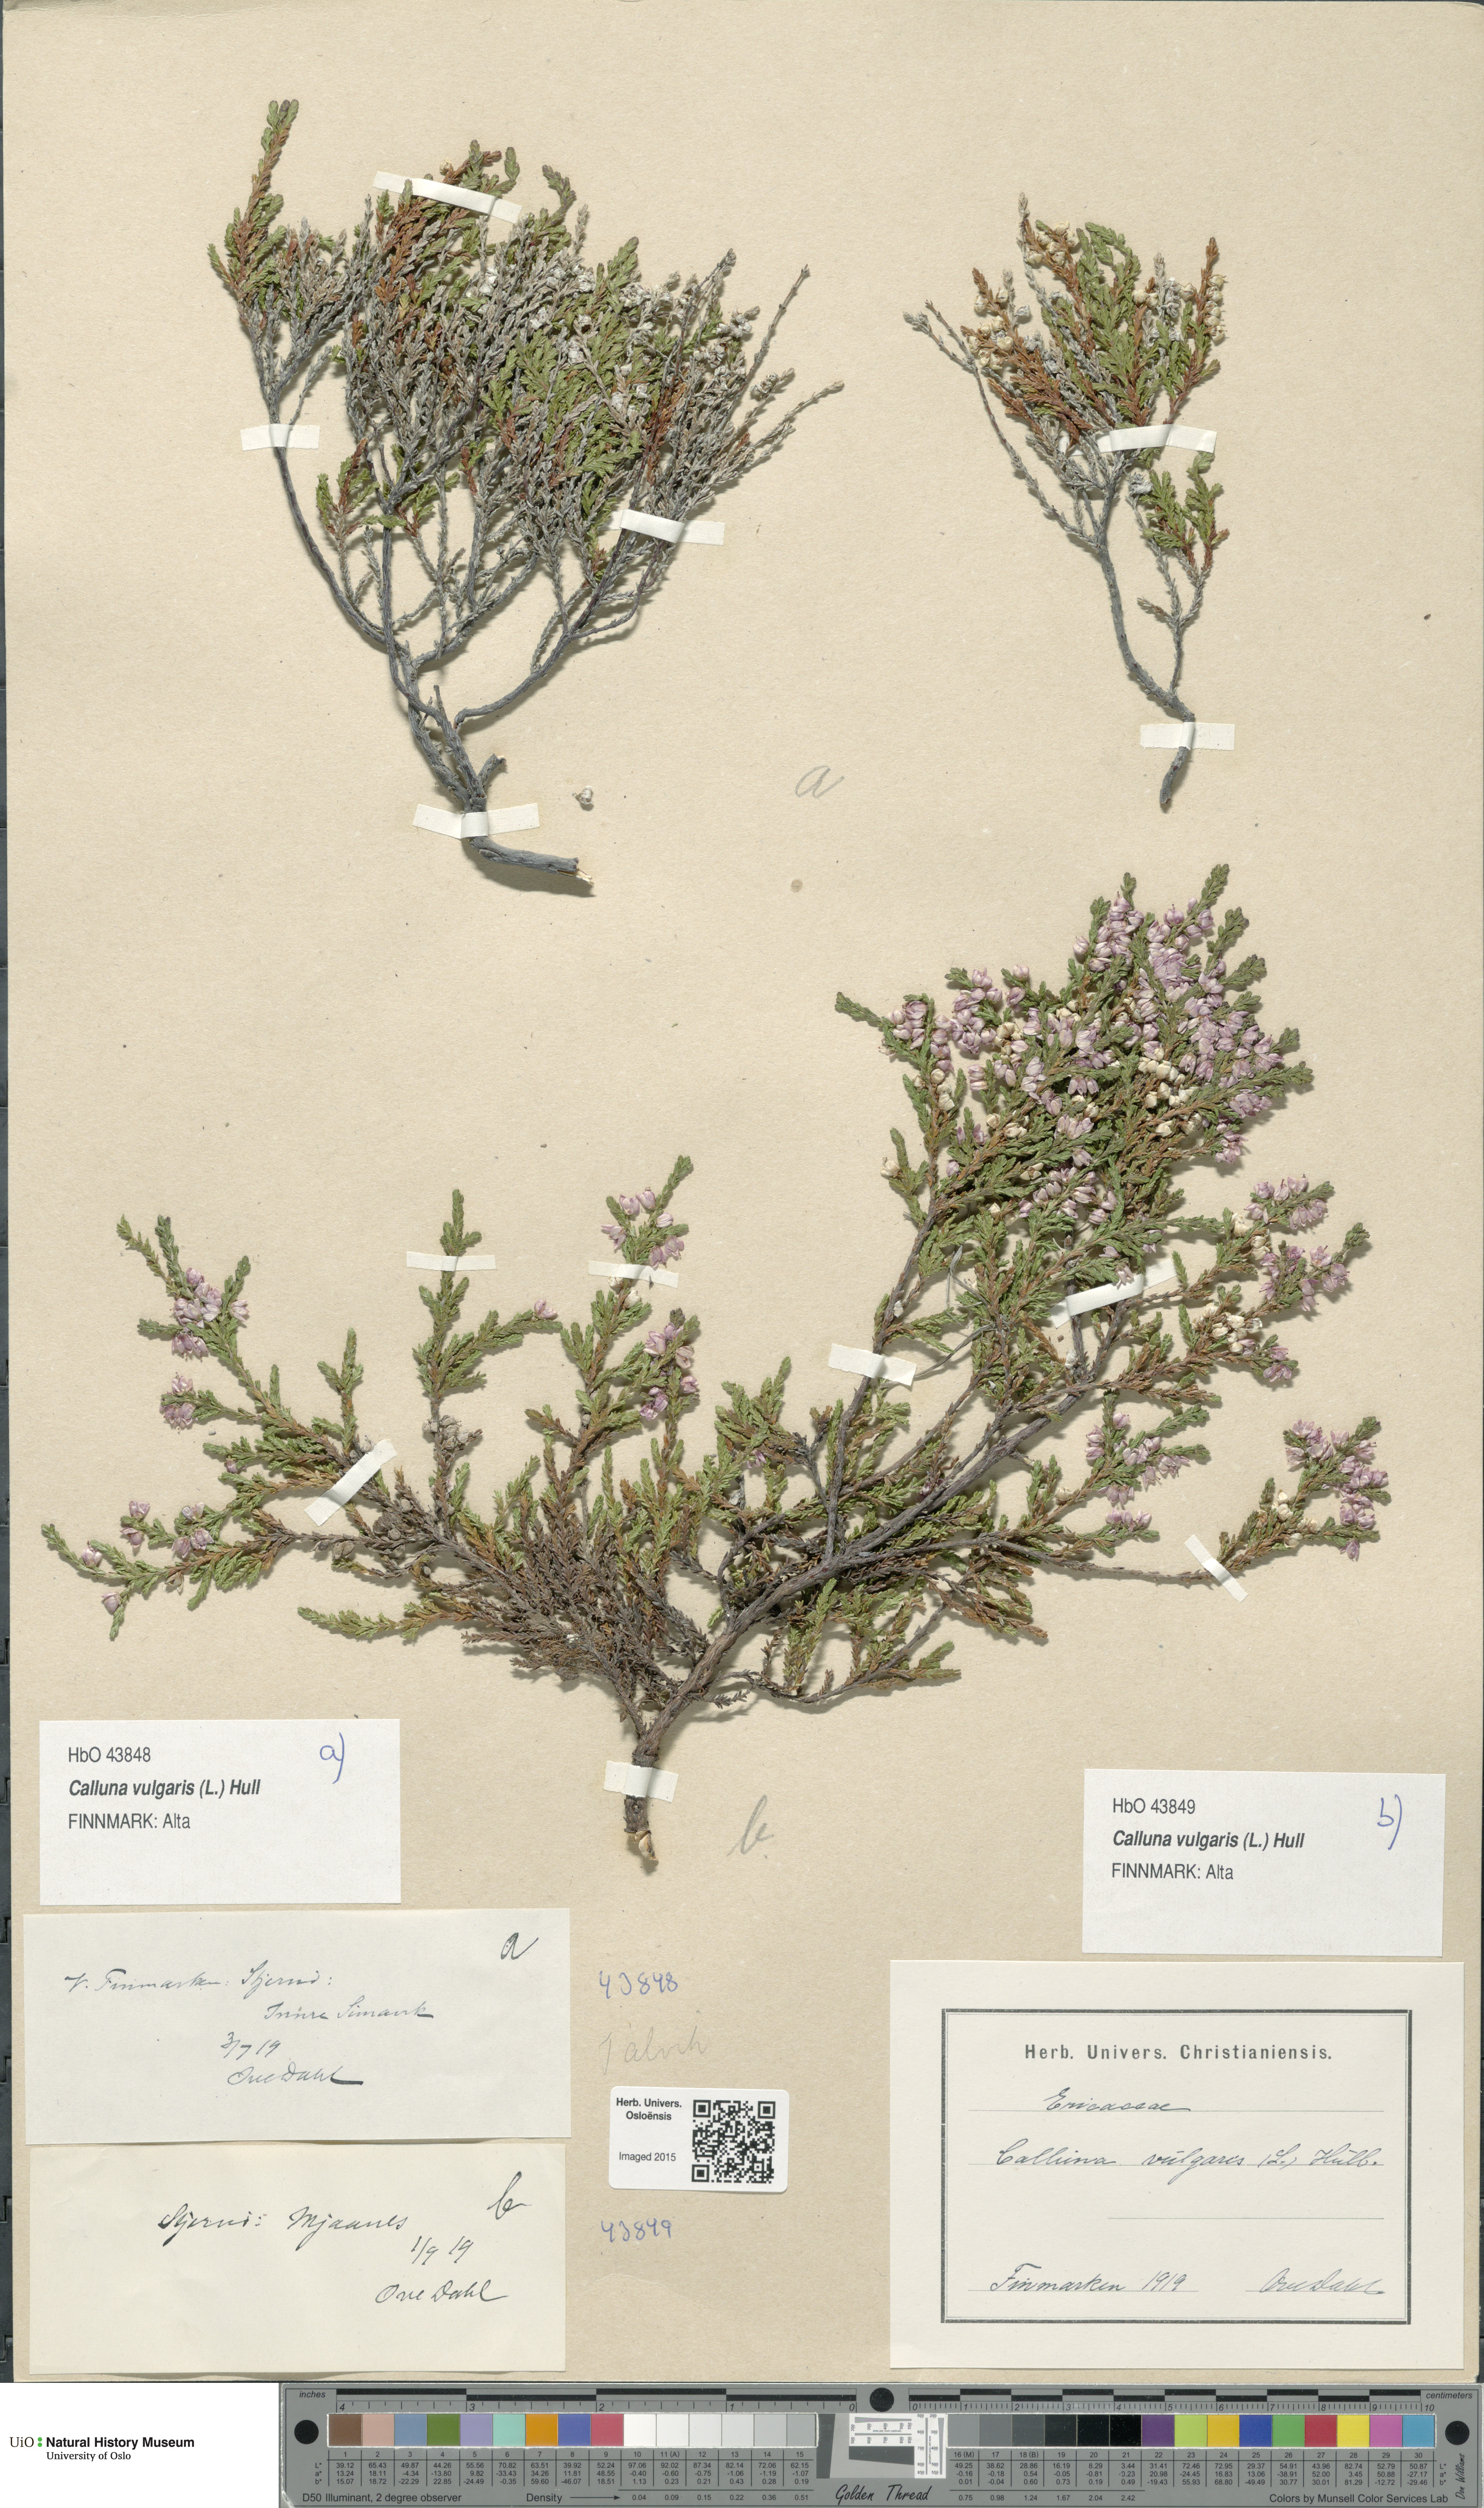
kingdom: Plantae
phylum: Tracheophyta
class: Magnoliopsida
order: Ericales
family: Ericaceae
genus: Calluna
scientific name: Calluna vulgaris
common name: Heather
